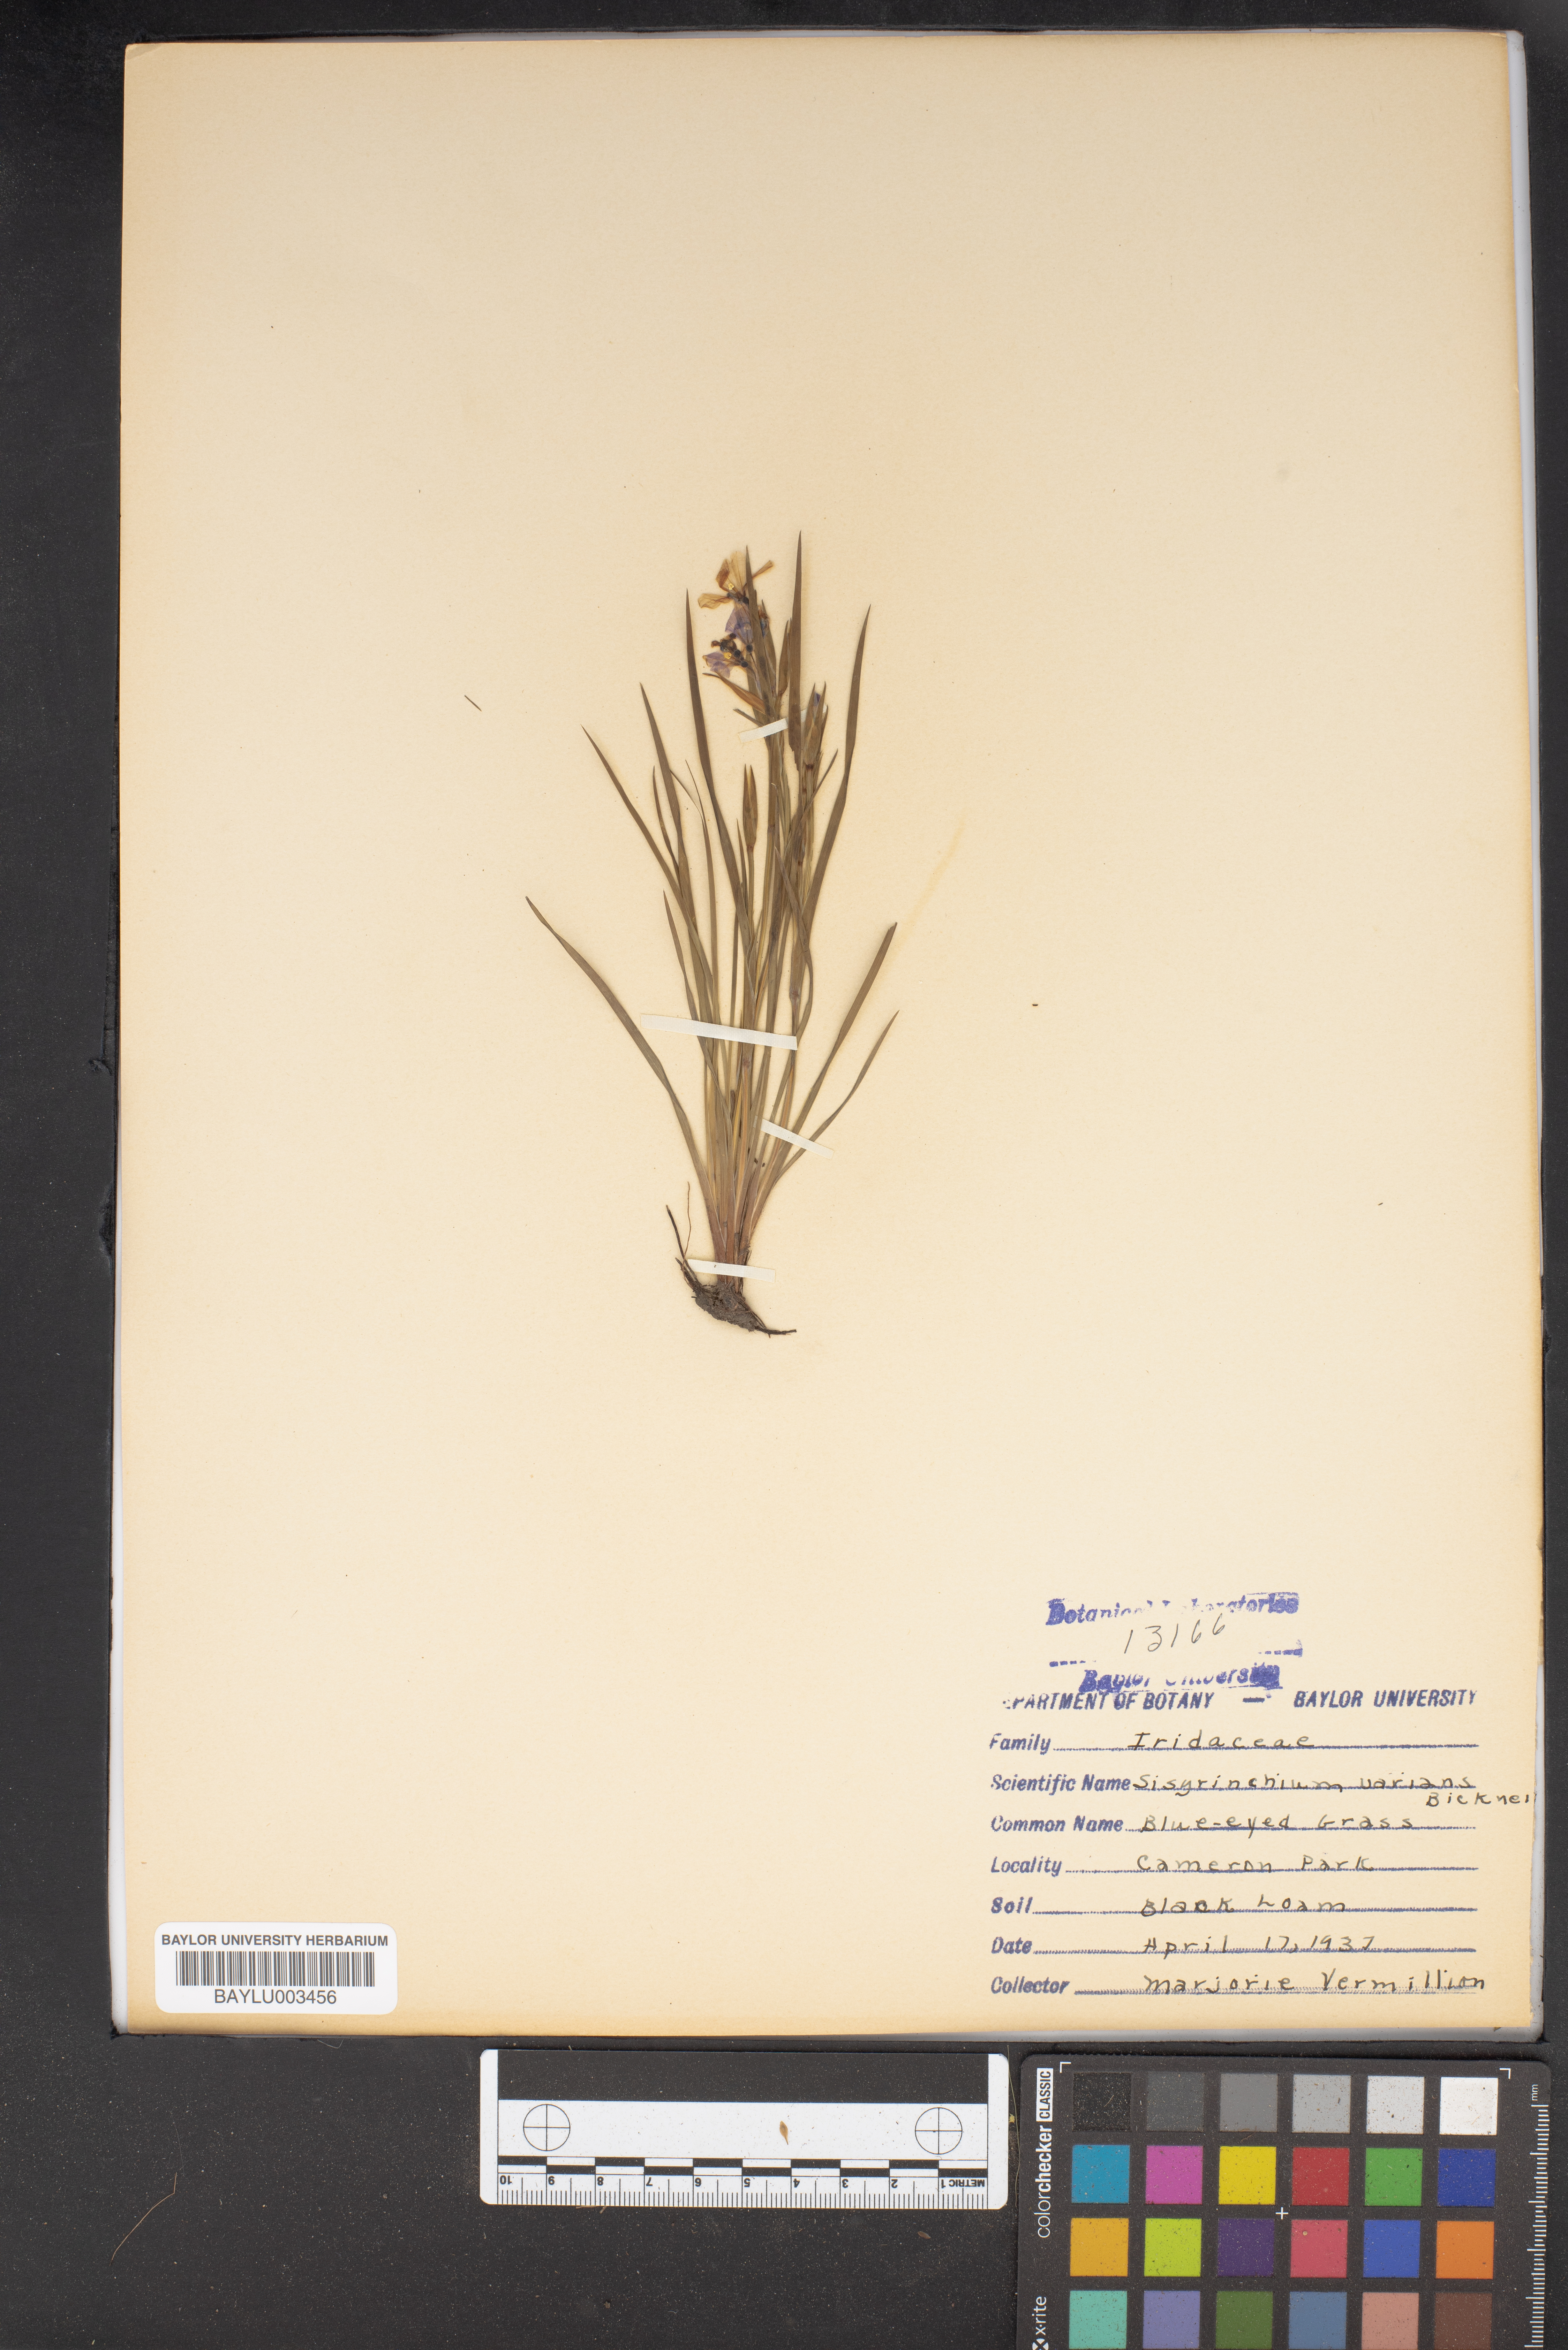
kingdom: Plantae
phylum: Tracheophyta
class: Liliopsida
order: Asparagales
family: Iridaceae
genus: Sisyrinchium
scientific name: Sisyrinchium pruinosum
